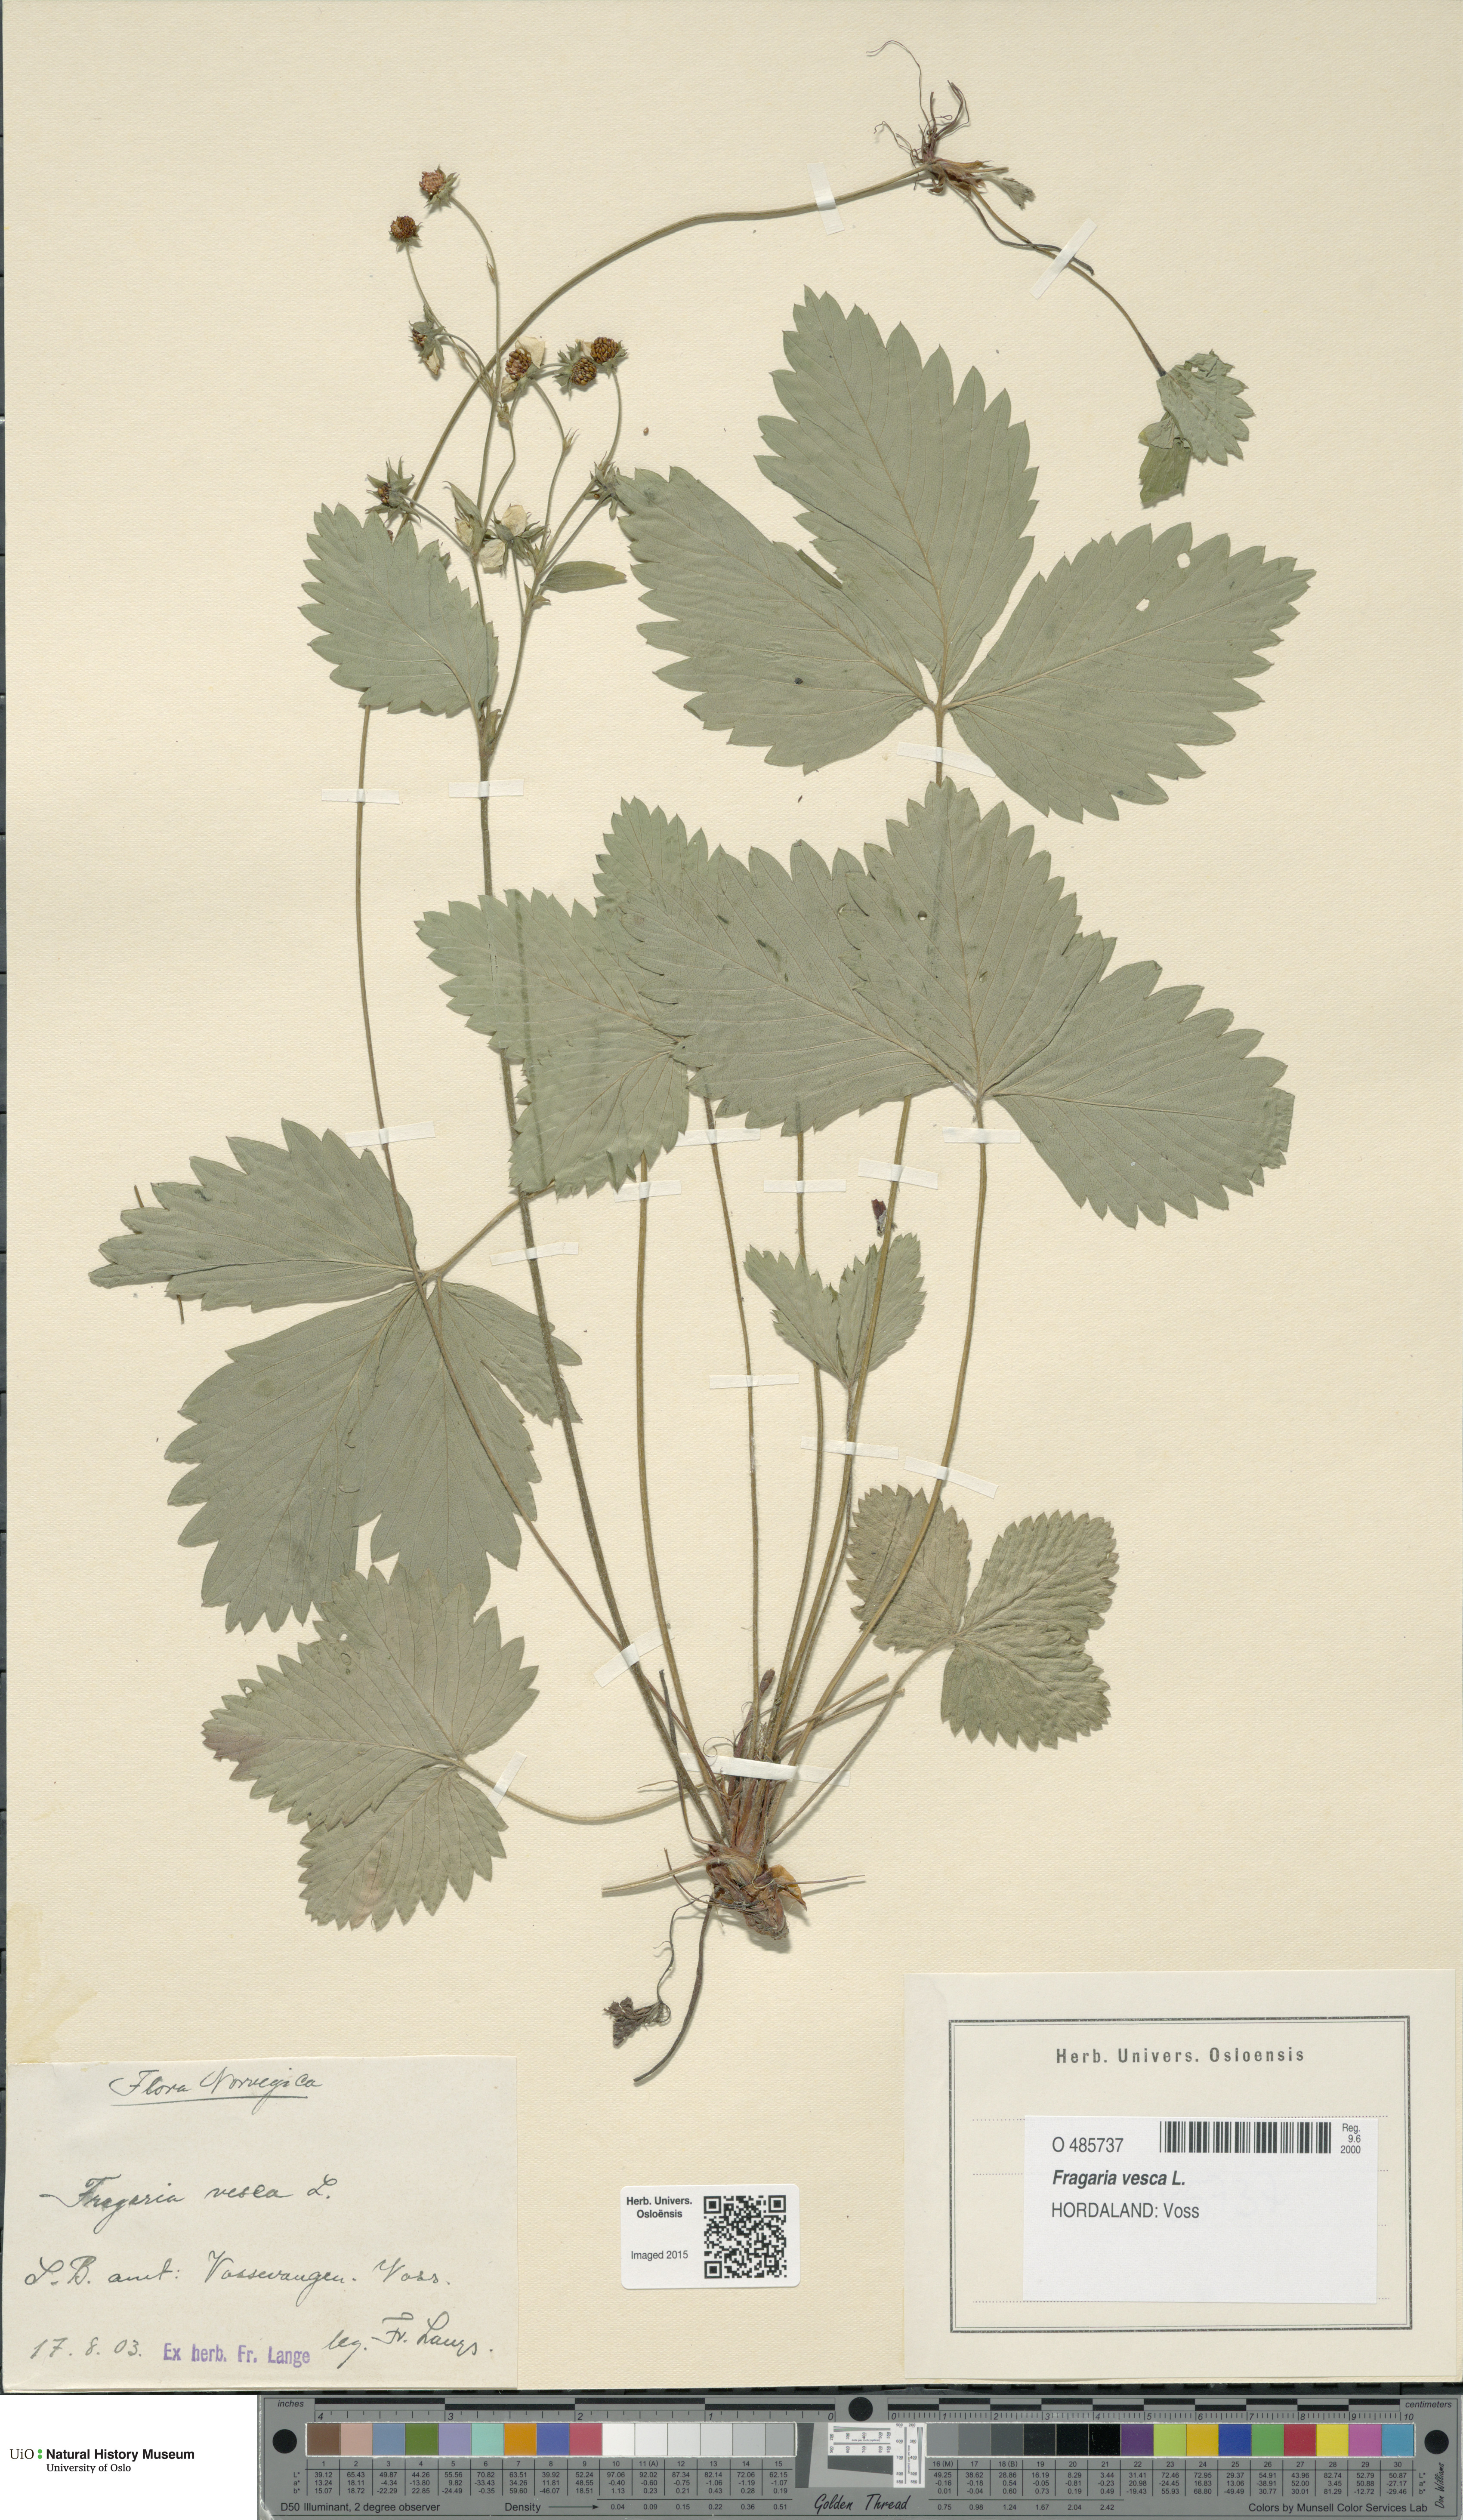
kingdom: Plantae
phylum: Tracheophyta
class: Magnoliopsida
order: Rosales
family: Rosaceae
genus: Fragaria
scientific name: Fragaria vesca
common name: Wild strawberry
